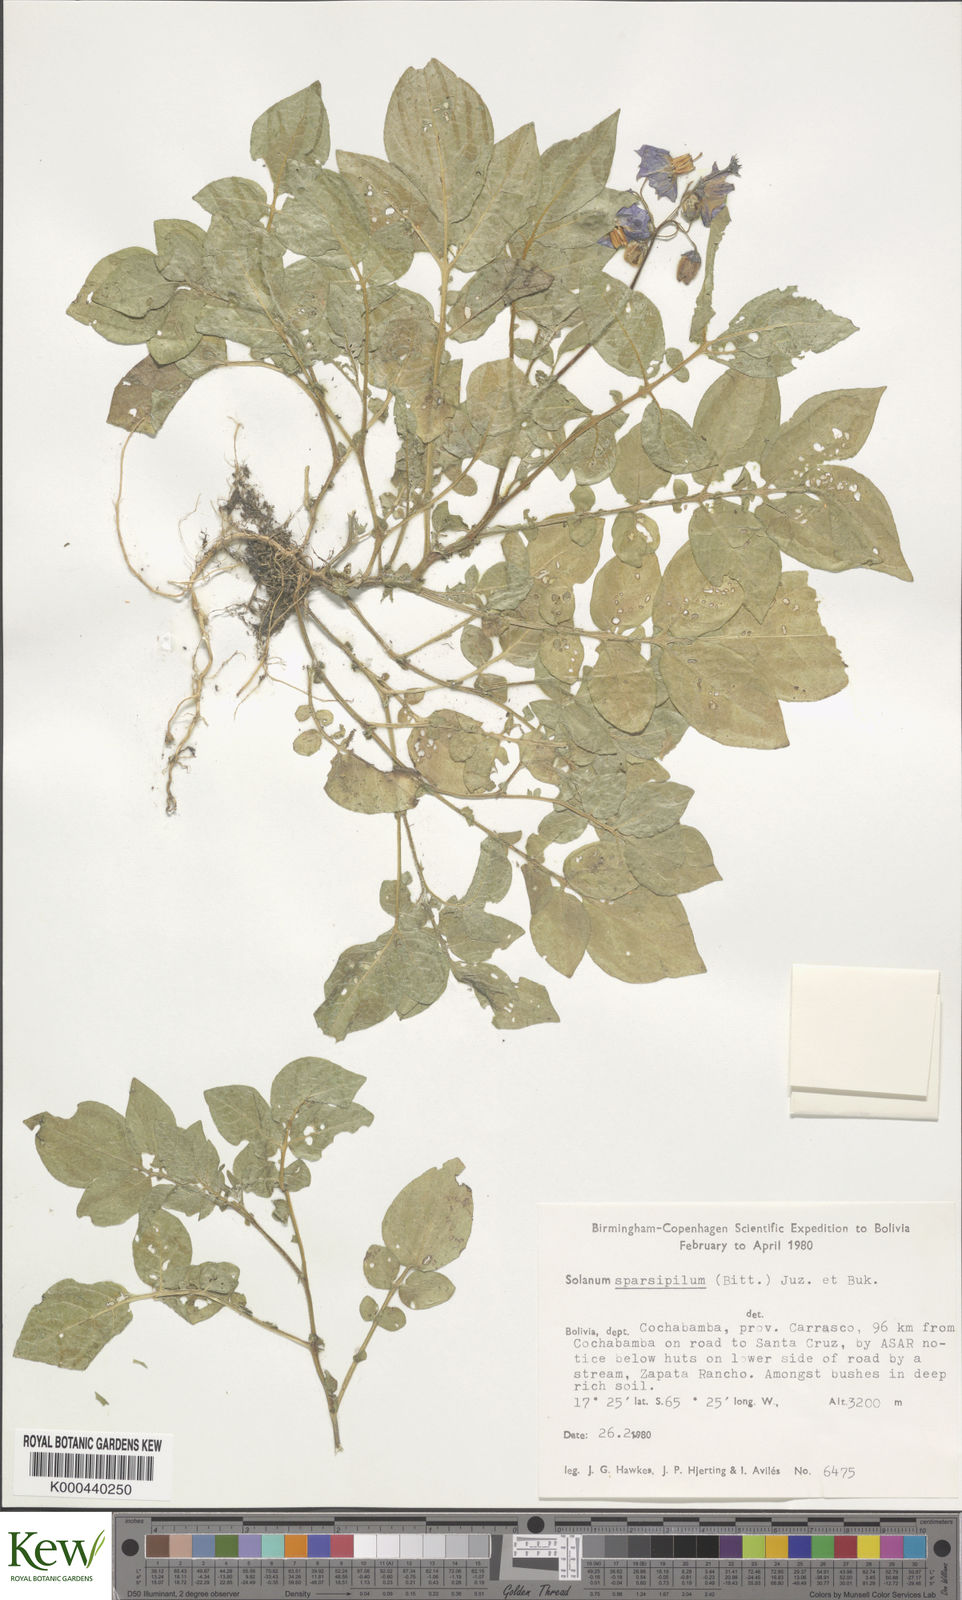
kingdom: Plantae
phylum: Tracheophyta
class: Magnoliopsida
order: Solanales
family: Solanaceae
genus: Solanum
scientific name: Solanum brevicaule
